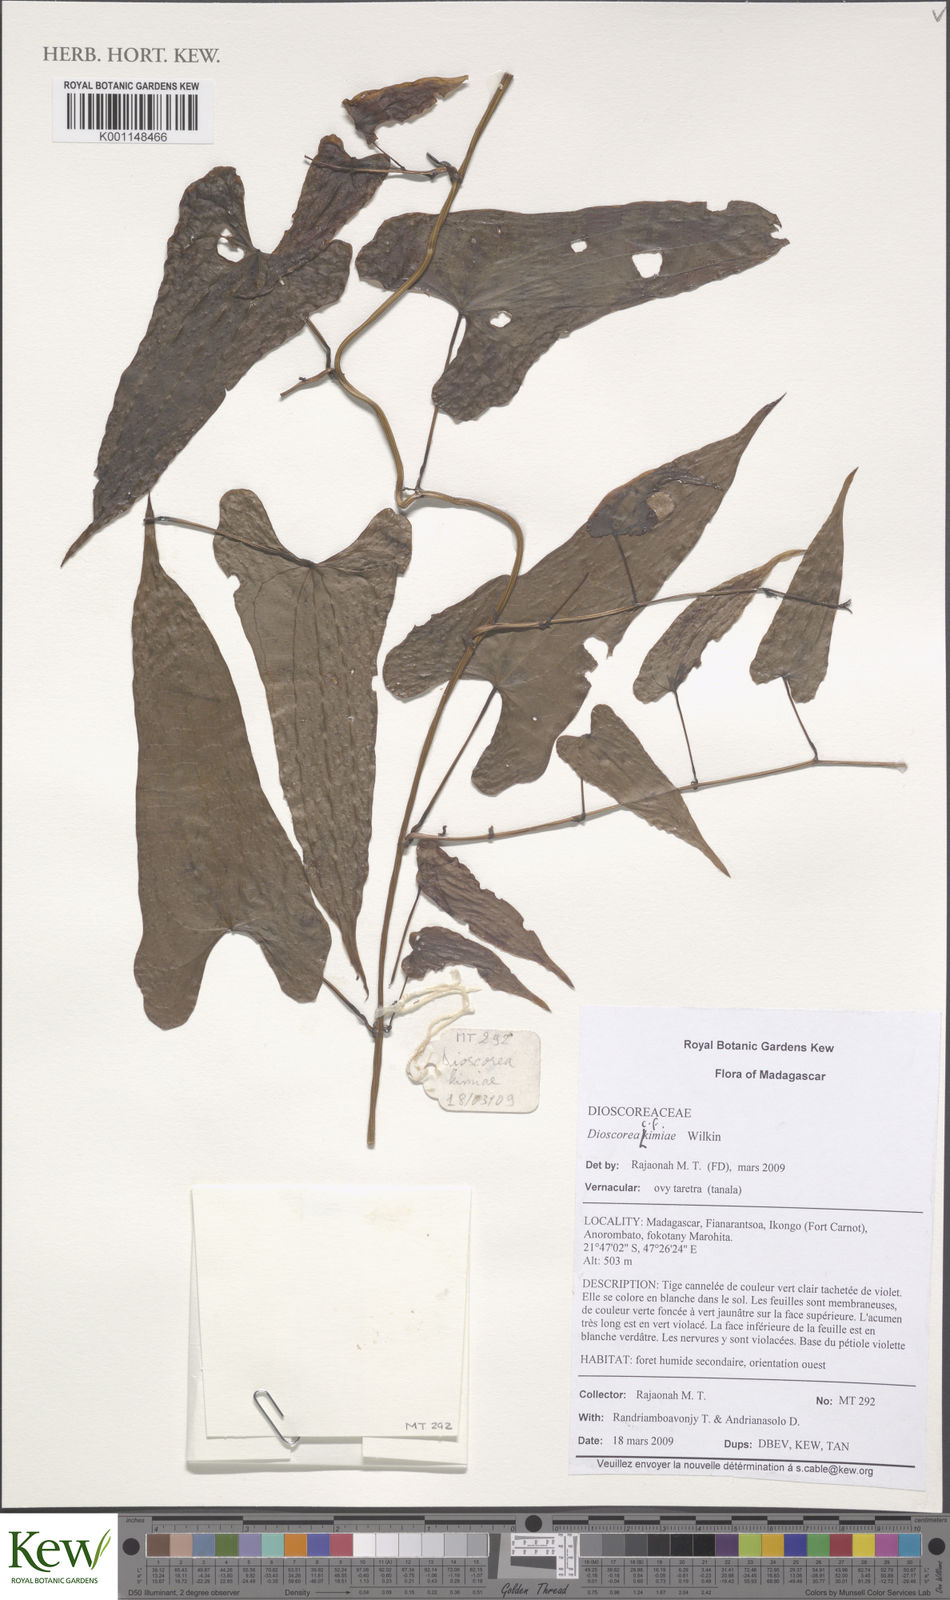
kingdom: Plantae
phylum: Tracheophyta
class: Liliopsida
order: Dioscoreales
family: Dioscoreaceae
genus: Dioscorea
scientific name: Dioscorea kimiae
